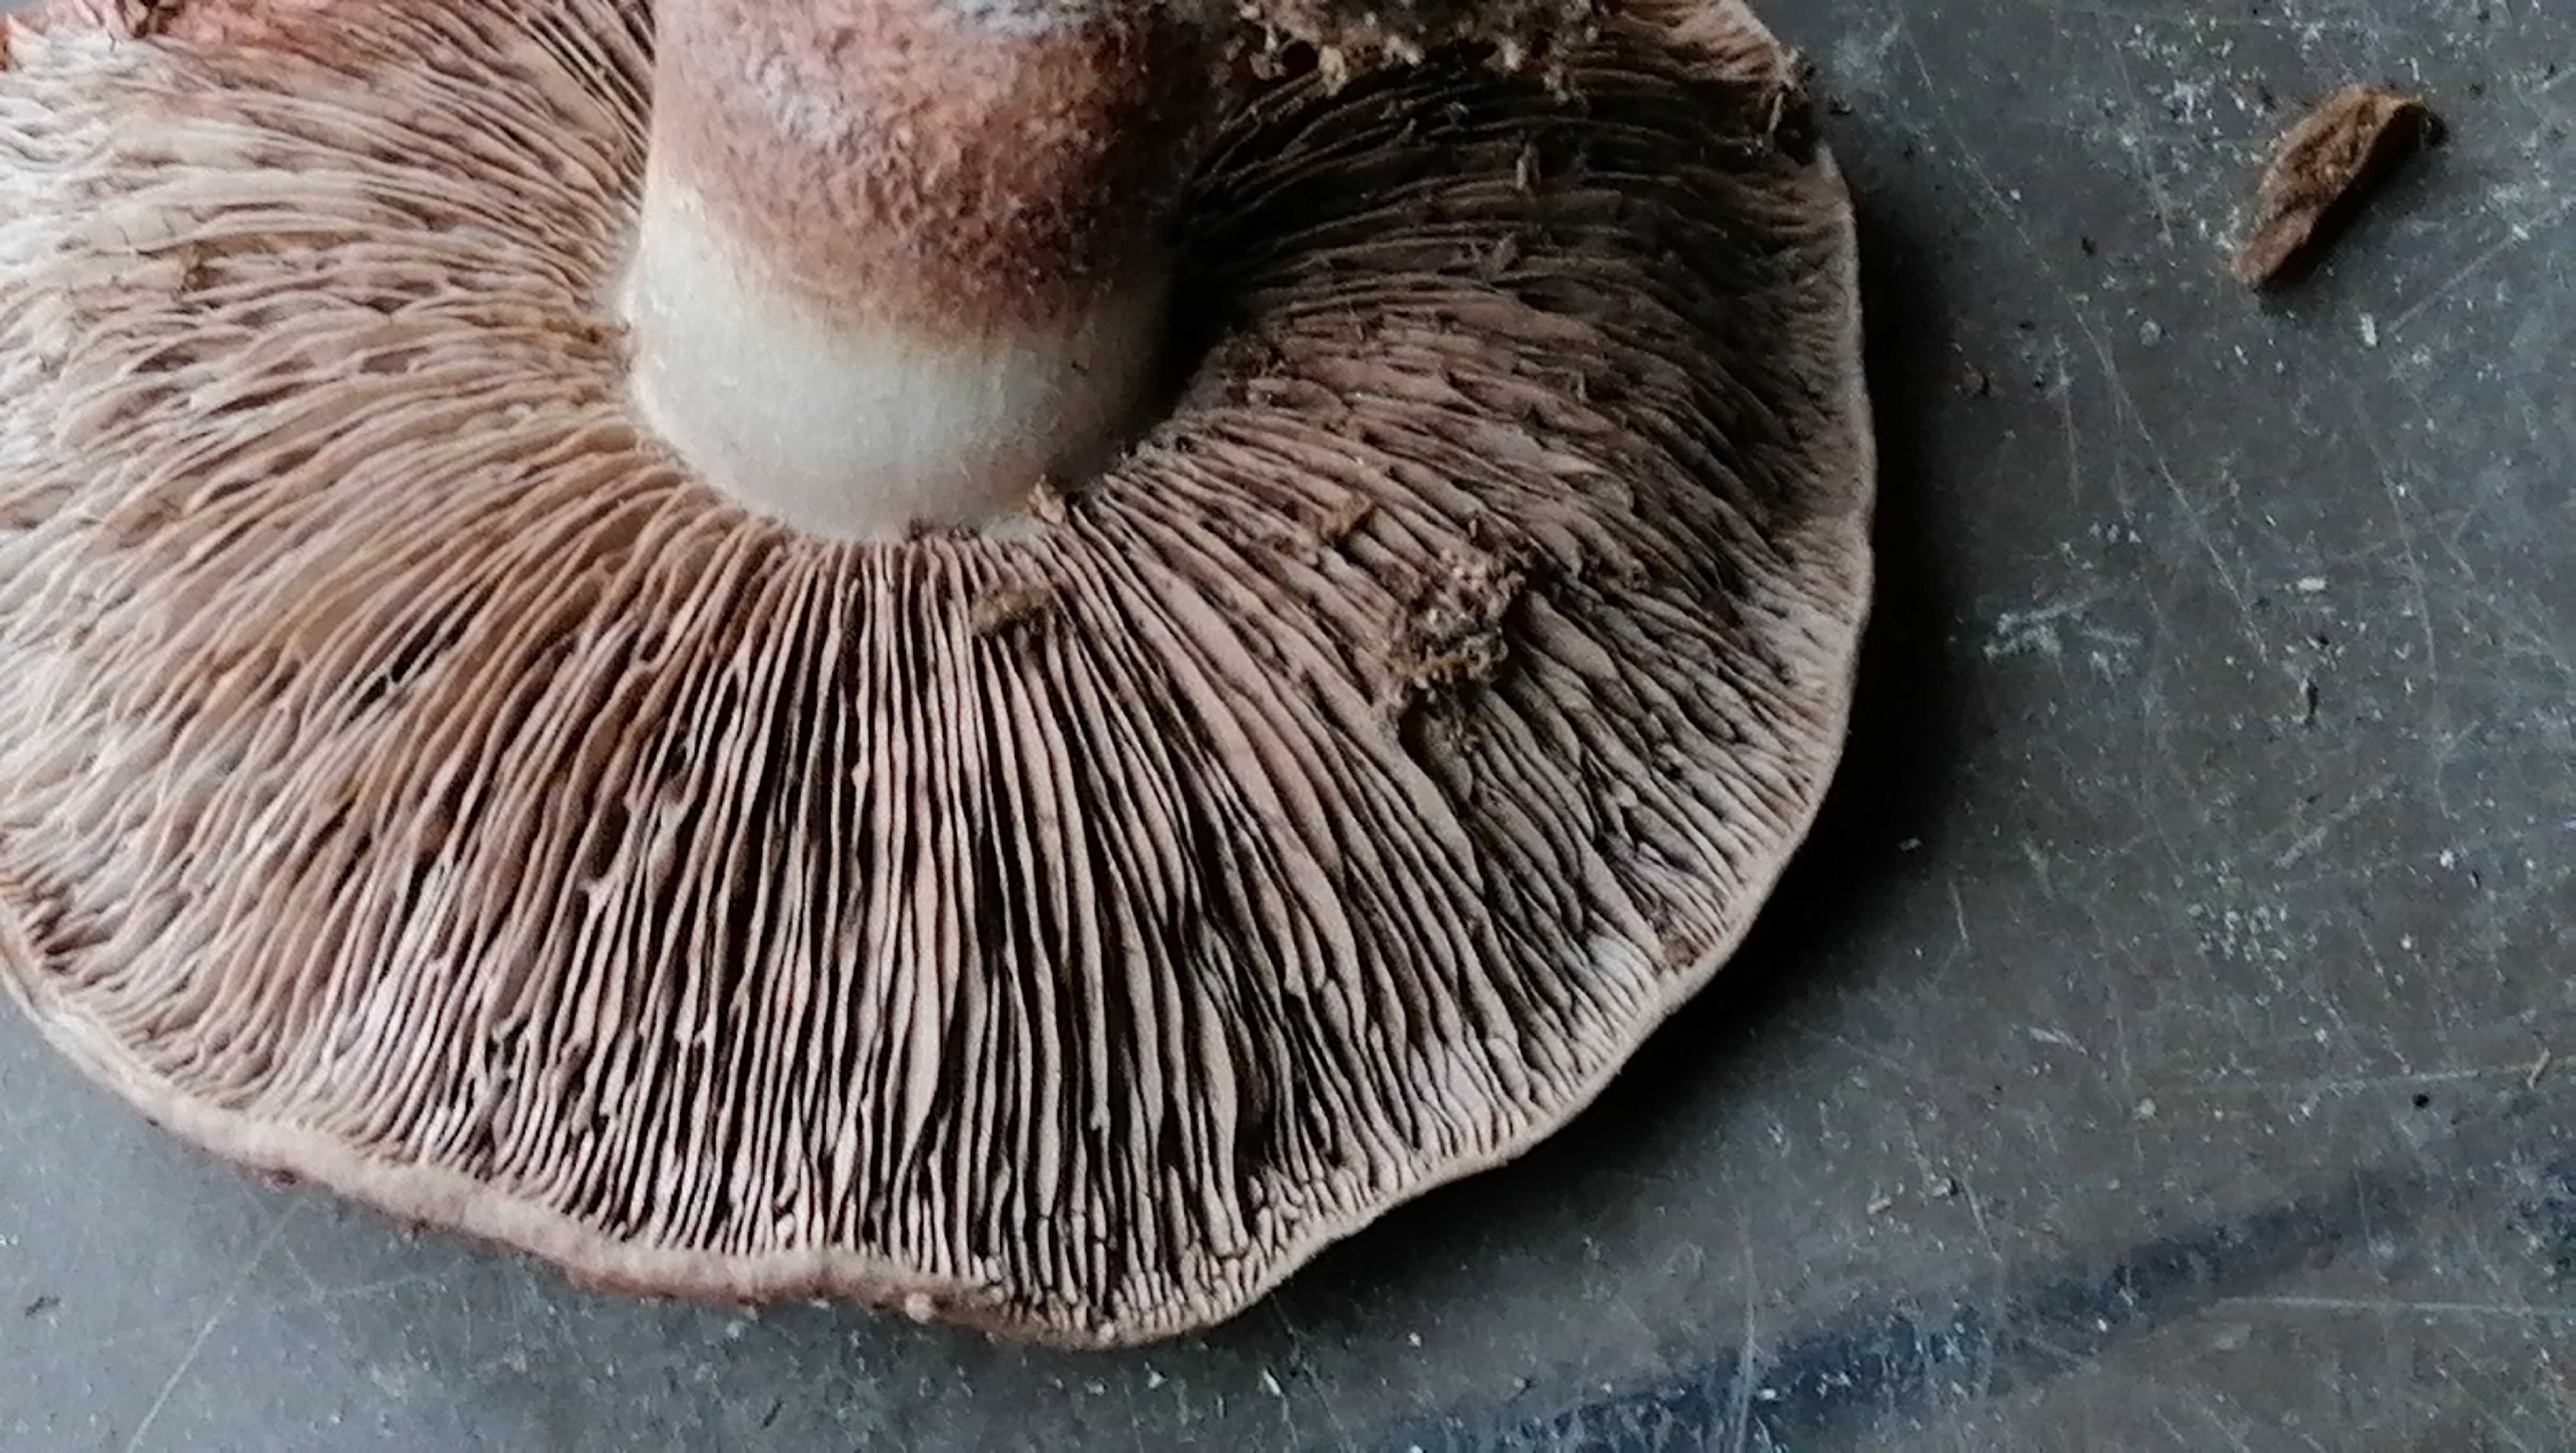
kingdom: Fungi
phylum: Basidiomycota
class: Agaricomycetes
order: Agaricales
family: Agaricaceae
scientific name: Agaricaceae
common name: champignonfamilien
